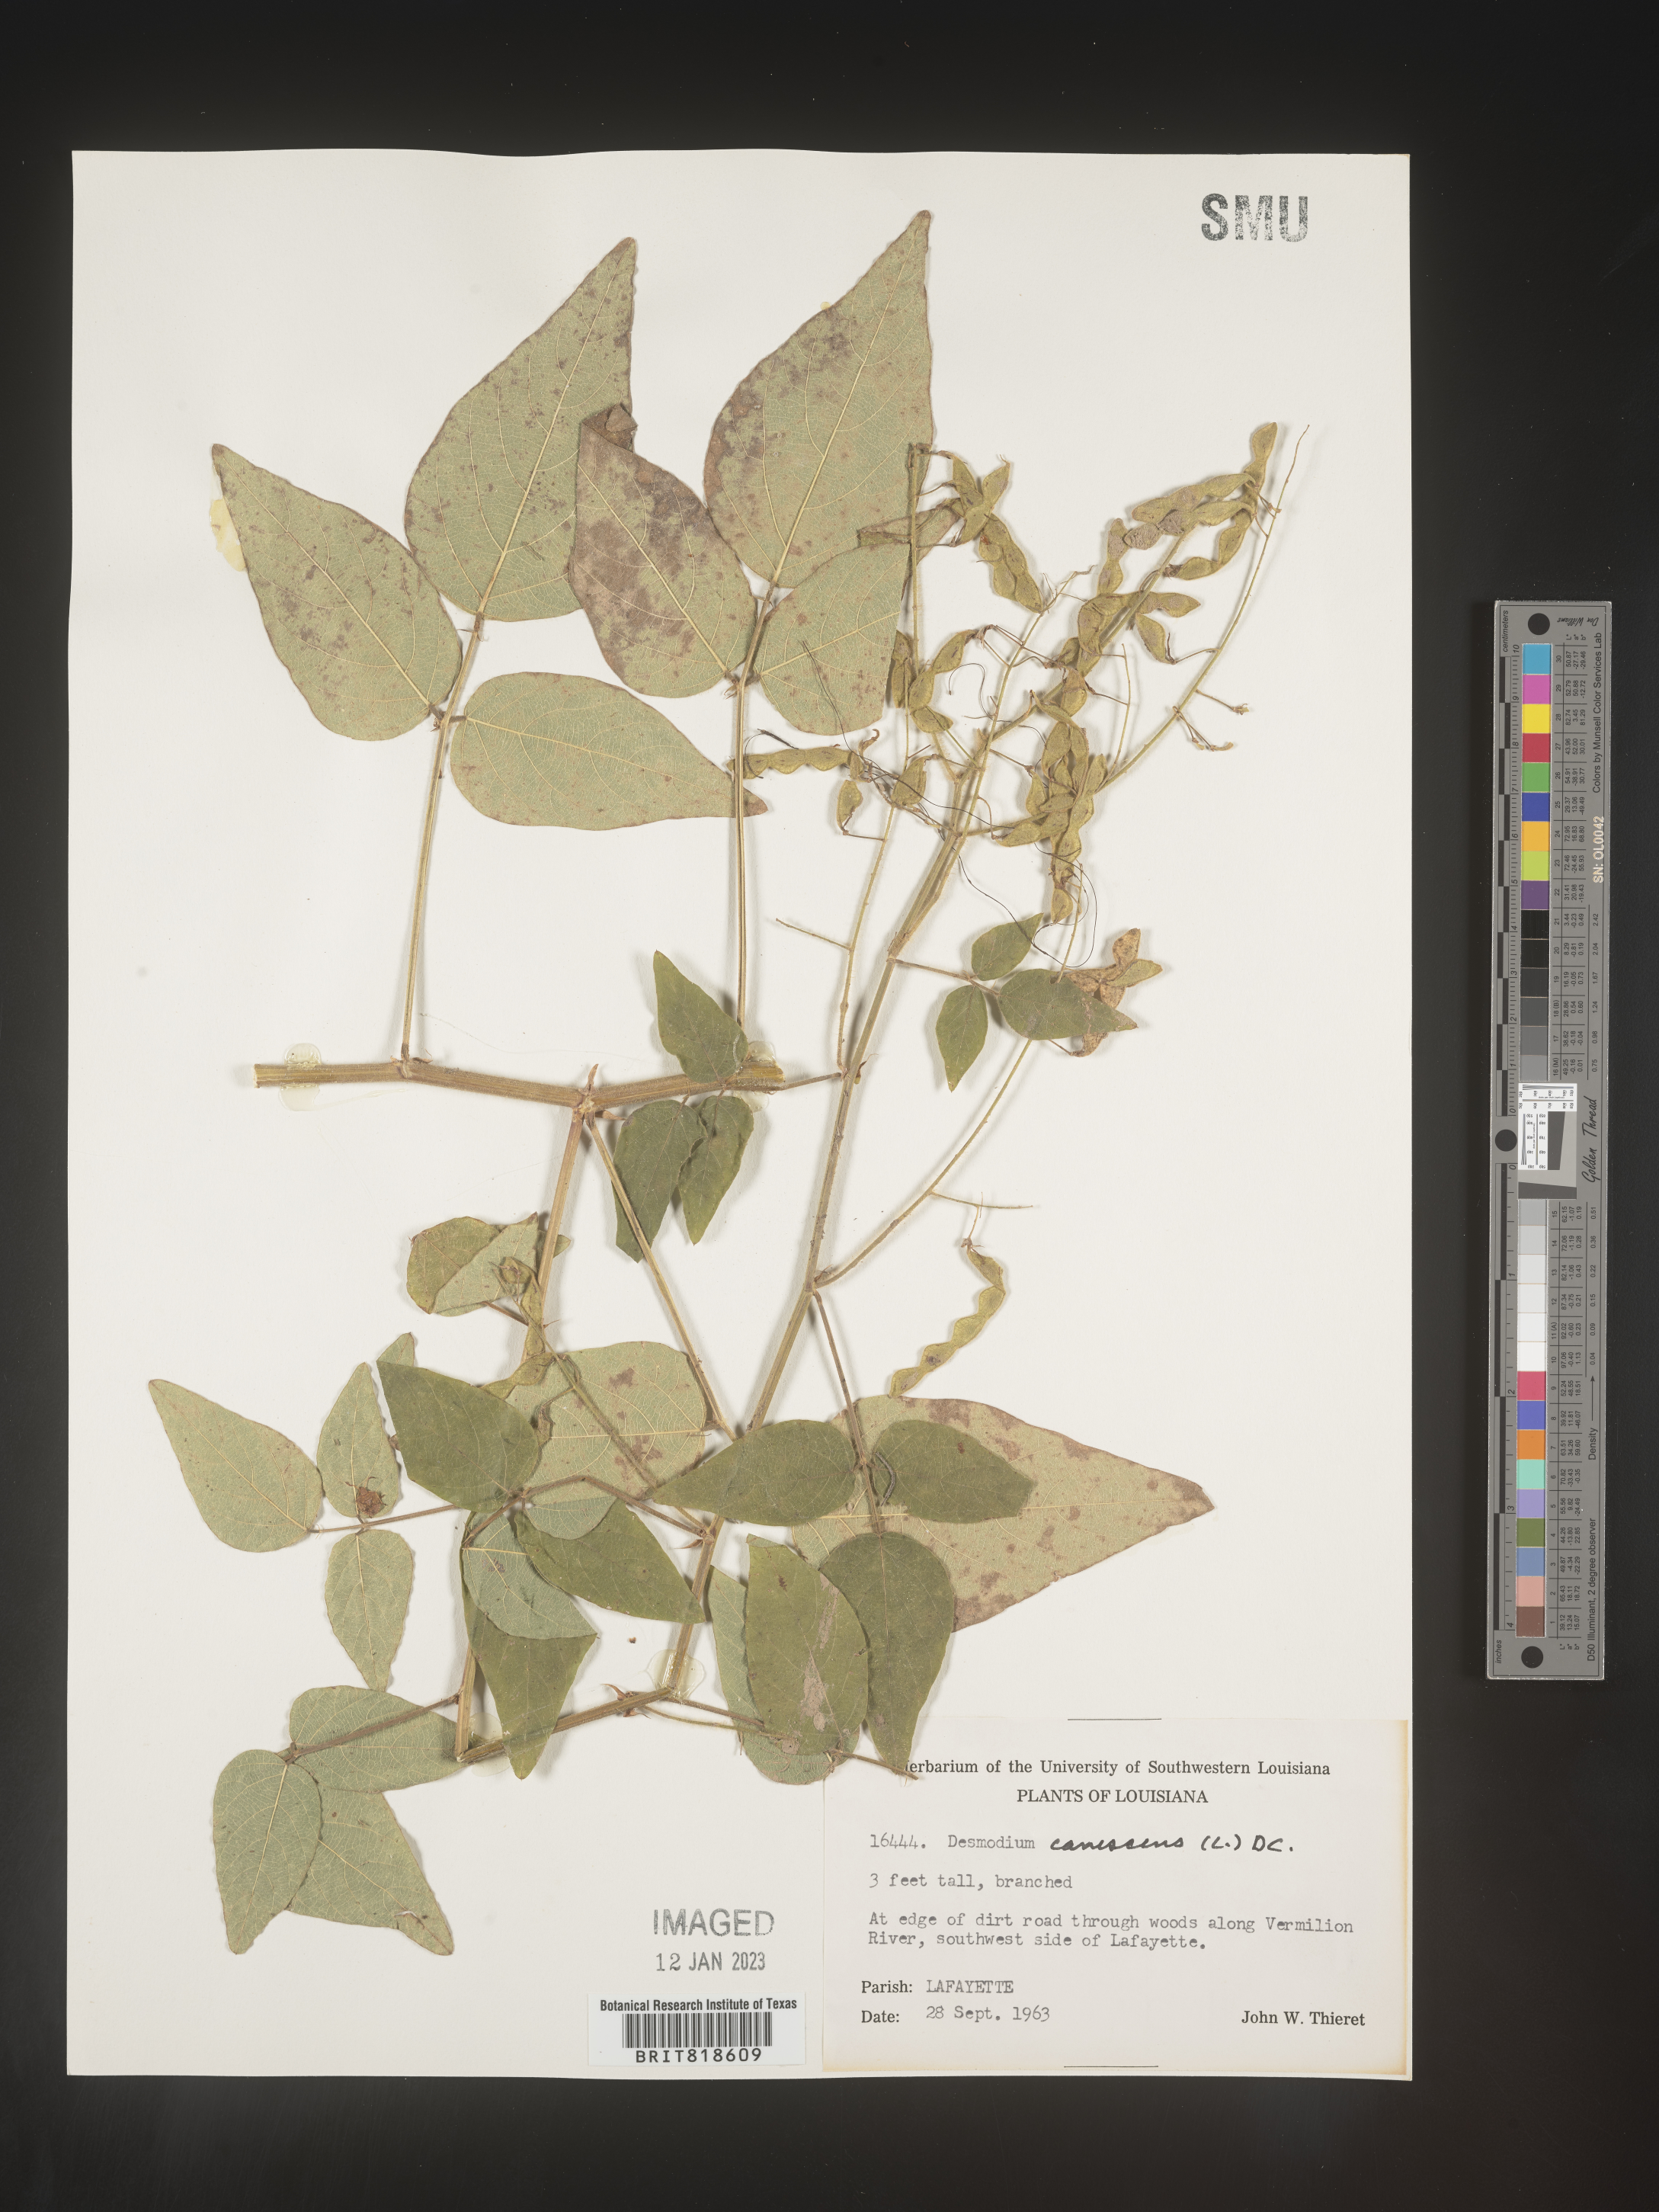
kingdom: Plantae
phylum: Tracheophyta
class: Magnoliopsida
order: Fabales
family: Fabaceae
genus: Desmodium
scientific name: Desmodium canescens
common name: Hoary tick-clover
